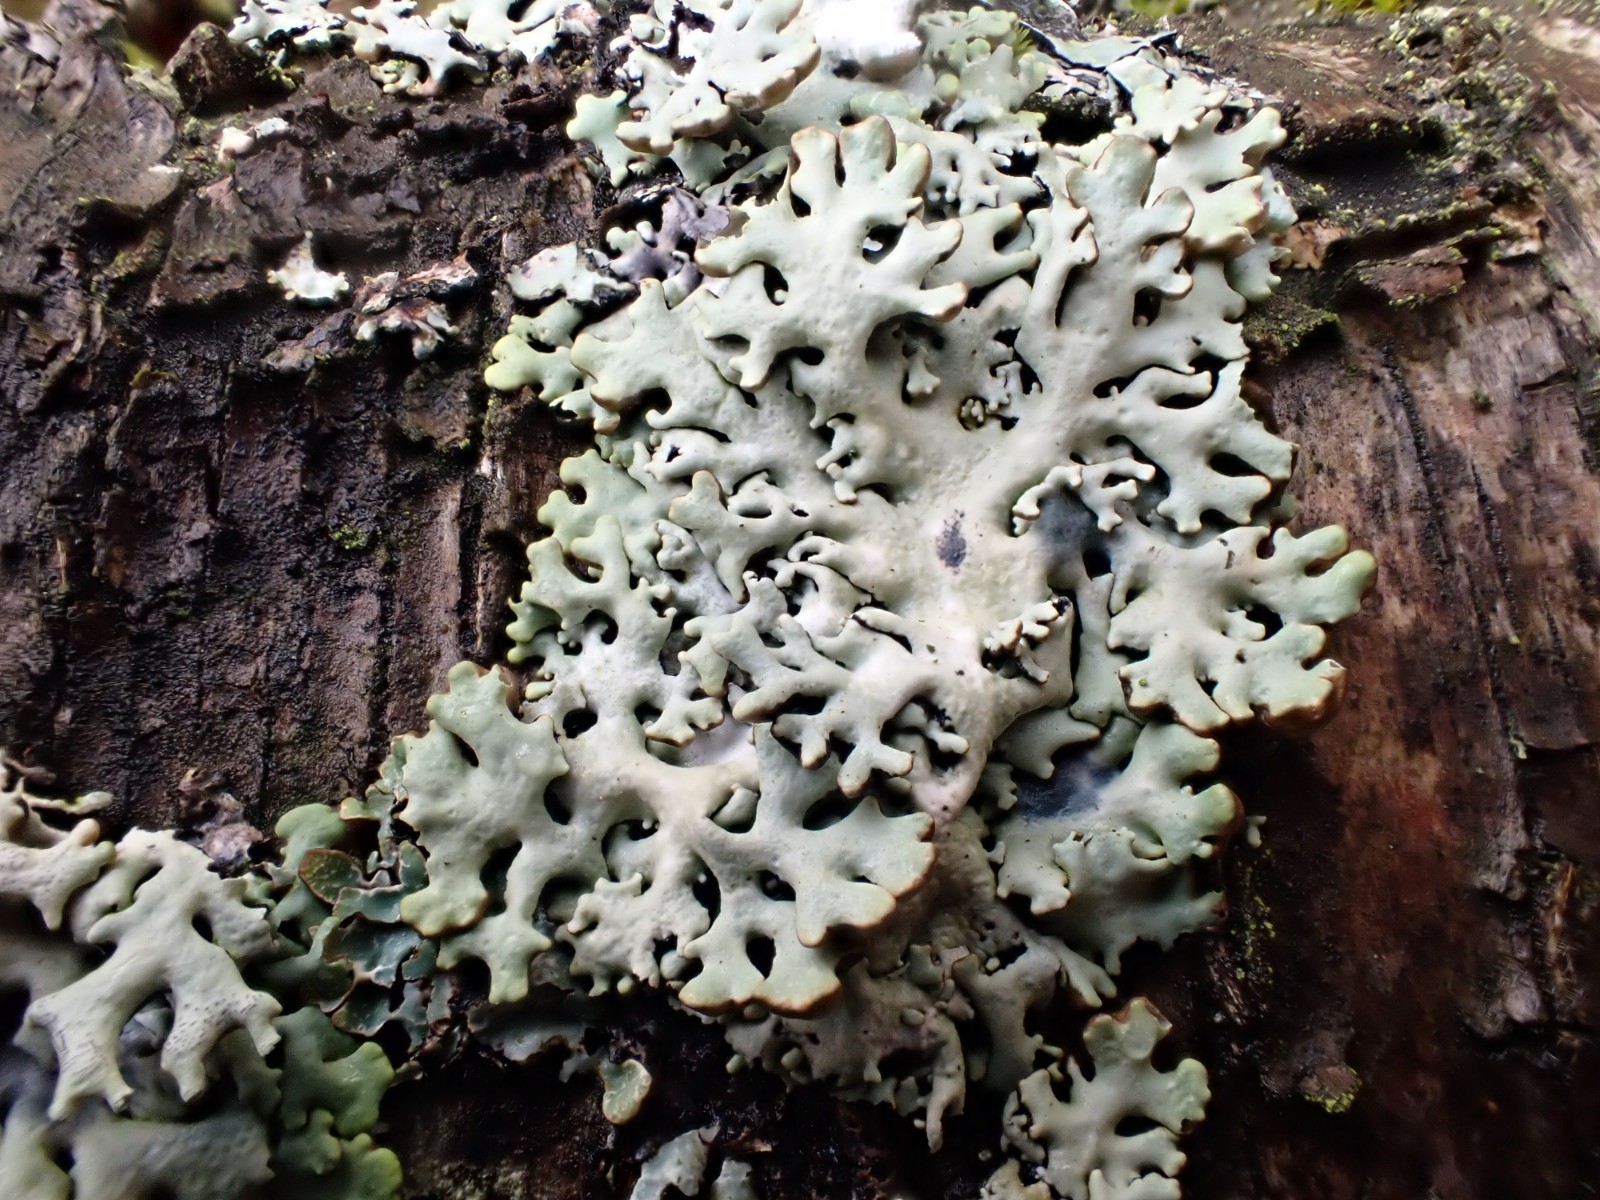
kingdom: Fungi
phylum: Ascomycota
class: Lecanoromycetes
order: Lecanorales
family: Parmeliaceae
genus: Hypogymnia
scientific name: Hypogymnia physodes
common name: almindelig kvistlav
